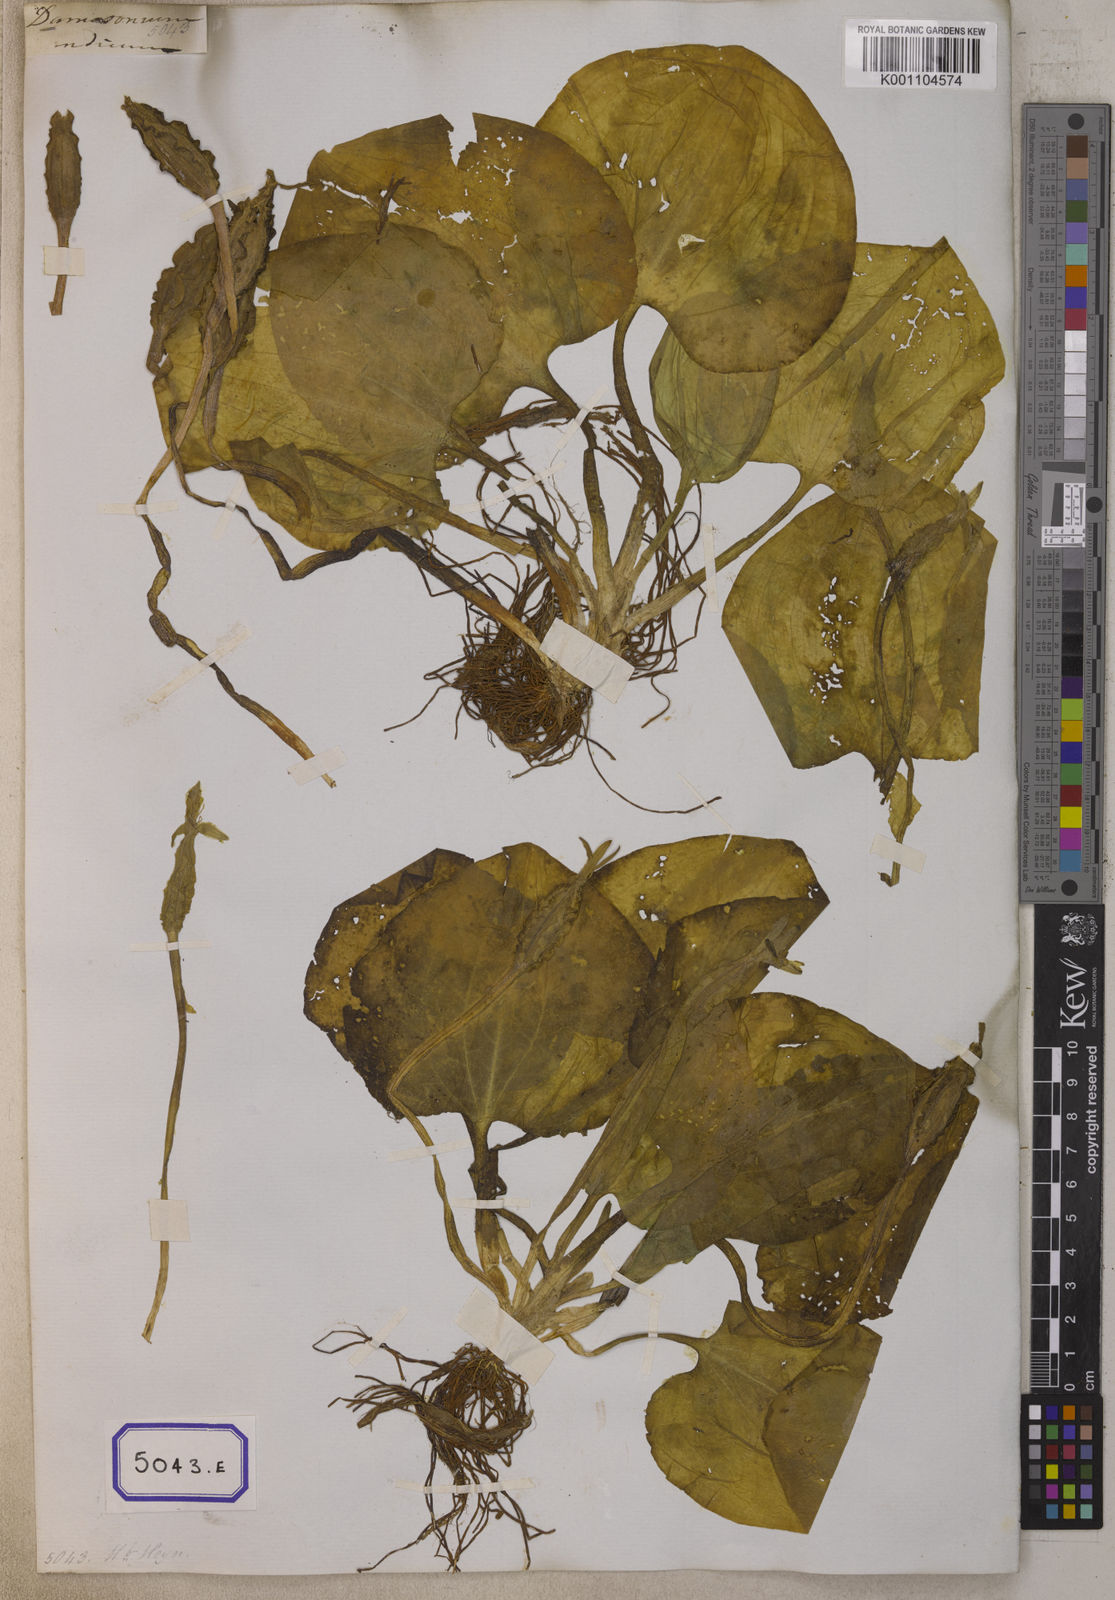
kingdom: Plantae
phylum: Tracheophyta
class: Liliopsida
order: Alismatales
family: Hydrocharitaceae
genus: Ottelia
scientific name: Ottelia alismoides
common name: Duck-lettuce
